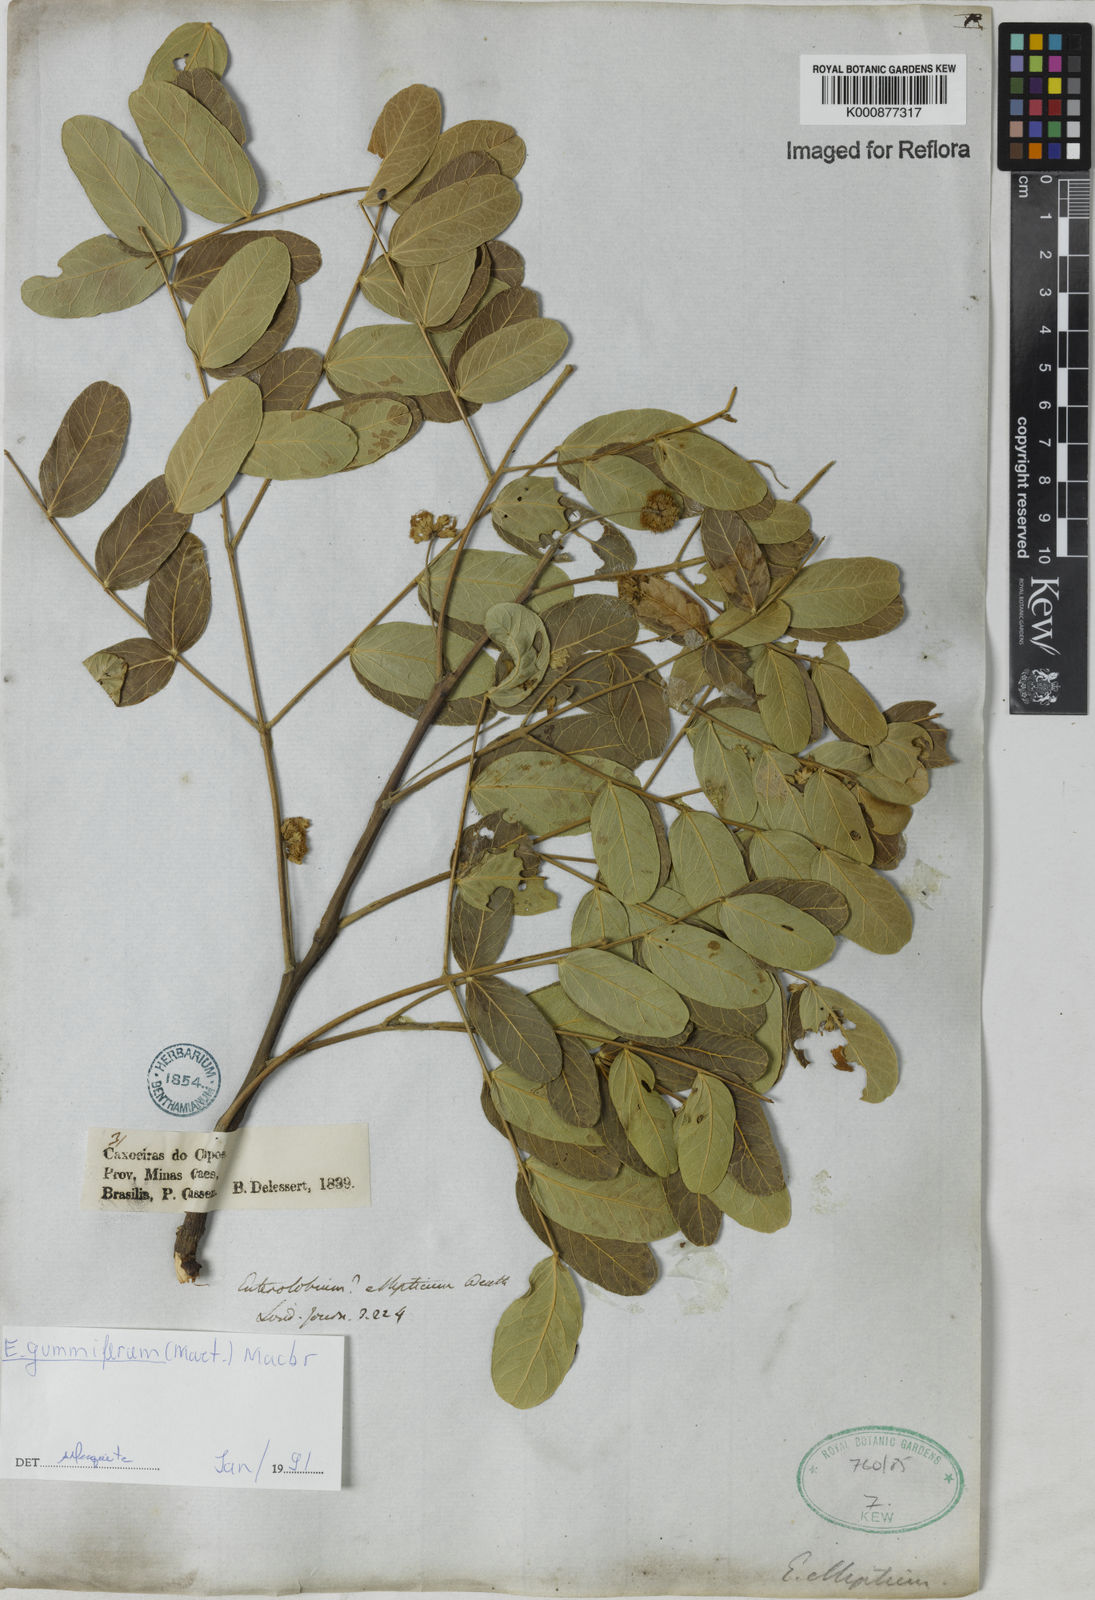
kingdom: Plantae
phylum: Tracheophyta
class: Magnoliopsida
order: Fabales
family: Fabaceae
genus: Enterolobium
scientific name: Enterolobium gummiferum
